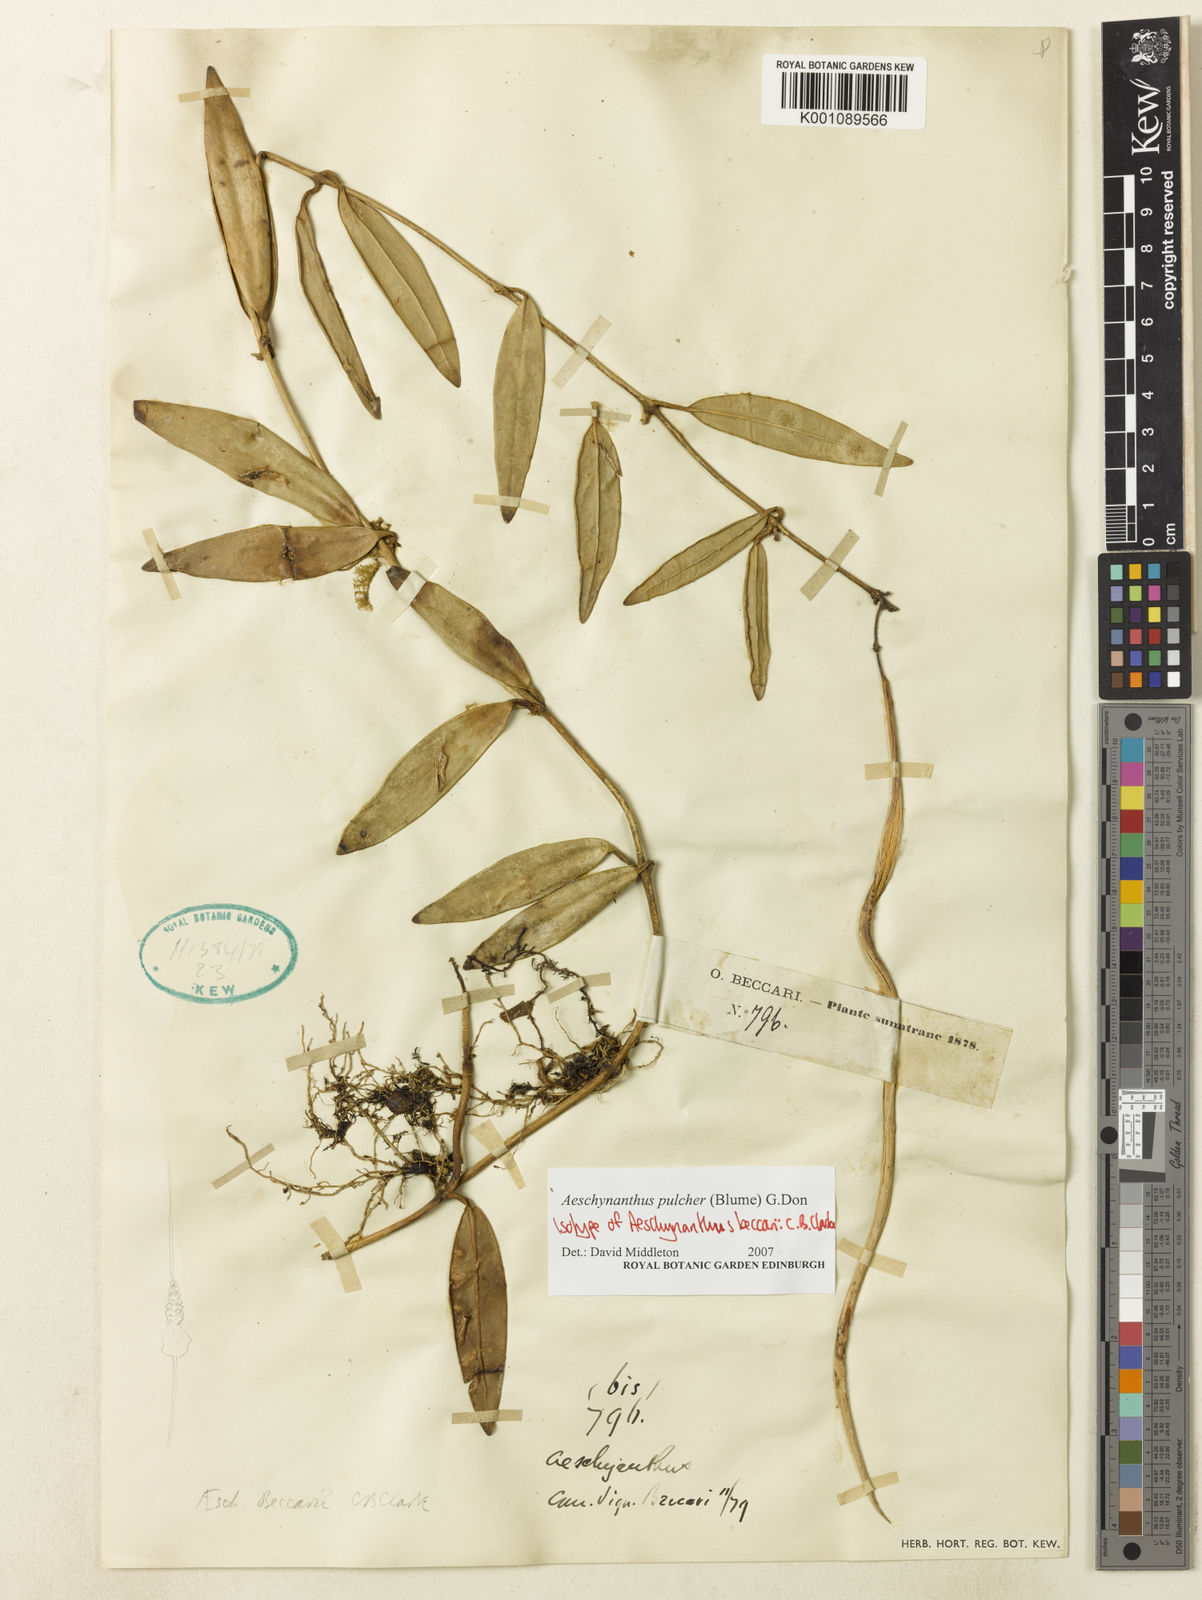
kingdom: Plantae
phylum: Tracheophyta
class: Magnoliopsida
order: Lamiales
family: Gesneriaceae
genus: Aeschynanthus
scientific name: Aeschynanthus pulcher
